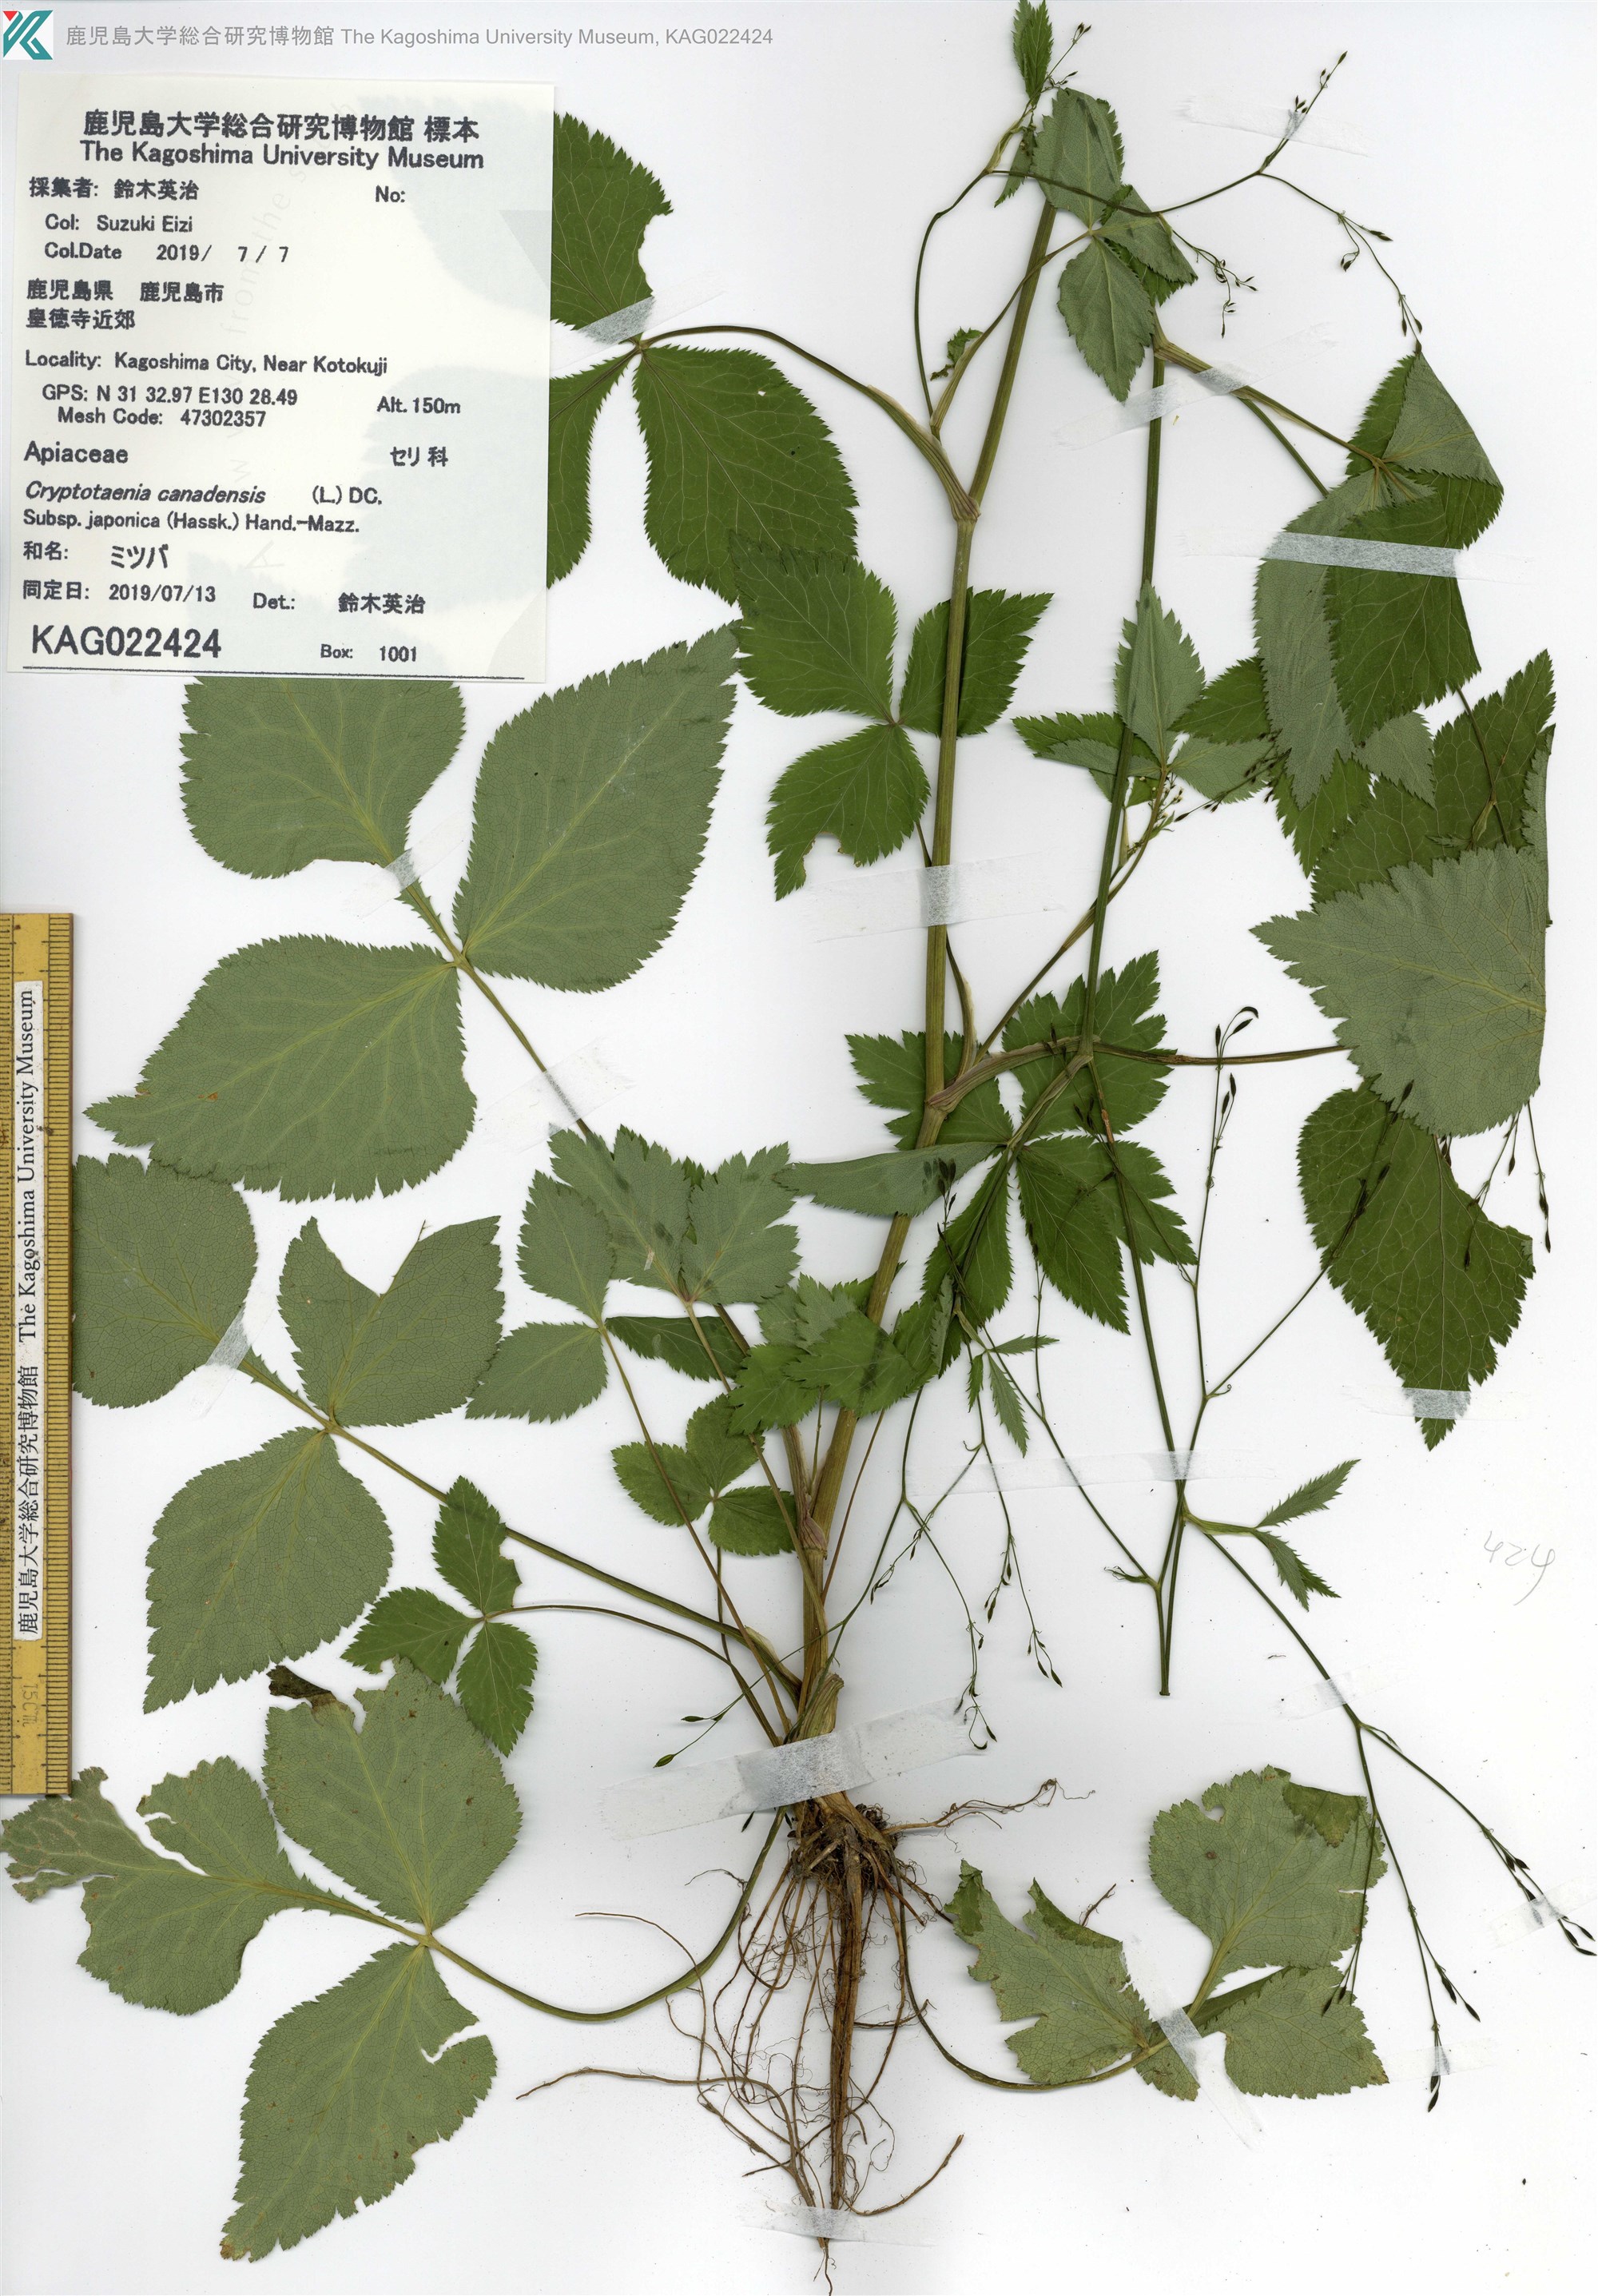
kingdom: Plantae
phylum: Tracheophyta
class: Magnoliopsida
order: Apiales
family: Apiaceae
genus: Cryptotaenia
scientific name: Cryptotaenia japonica
